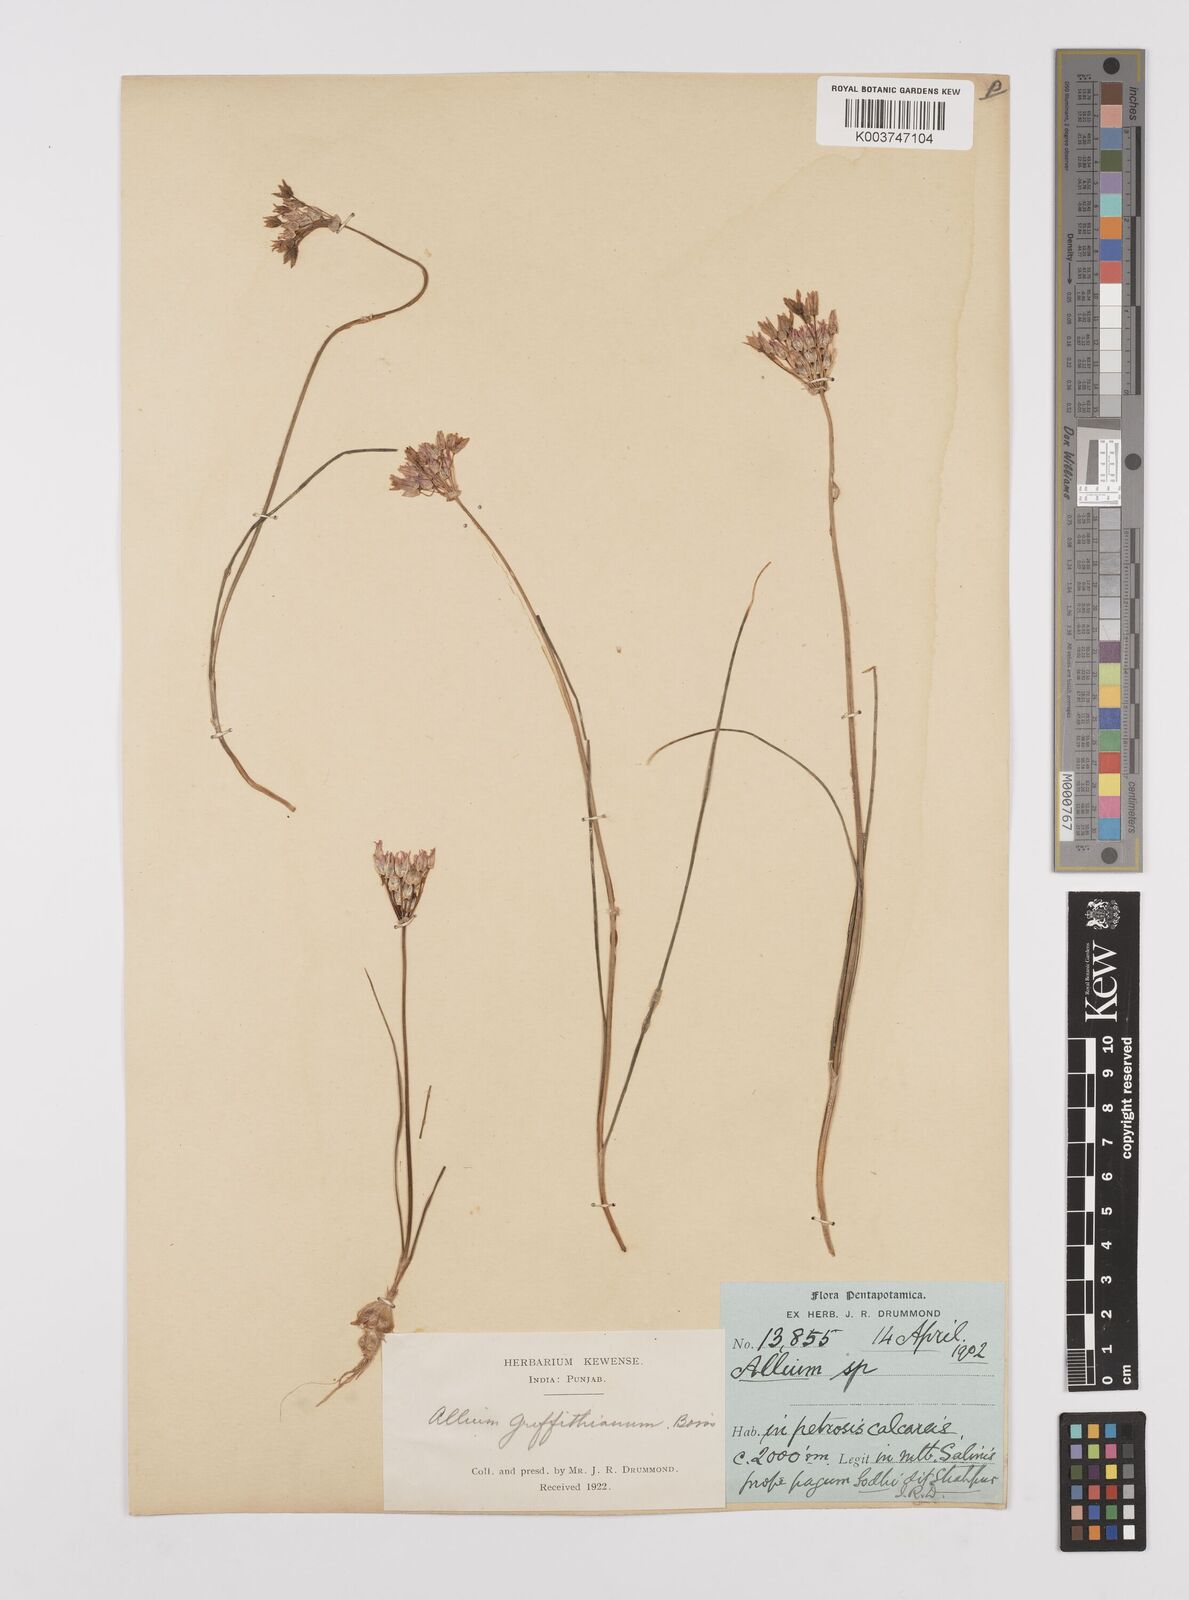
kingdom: Plantae
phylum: Tracheophyta
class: Liliopsida
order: Asparagales
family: Amaryllidaceae
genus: Allium
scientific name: Allium griffithianum
